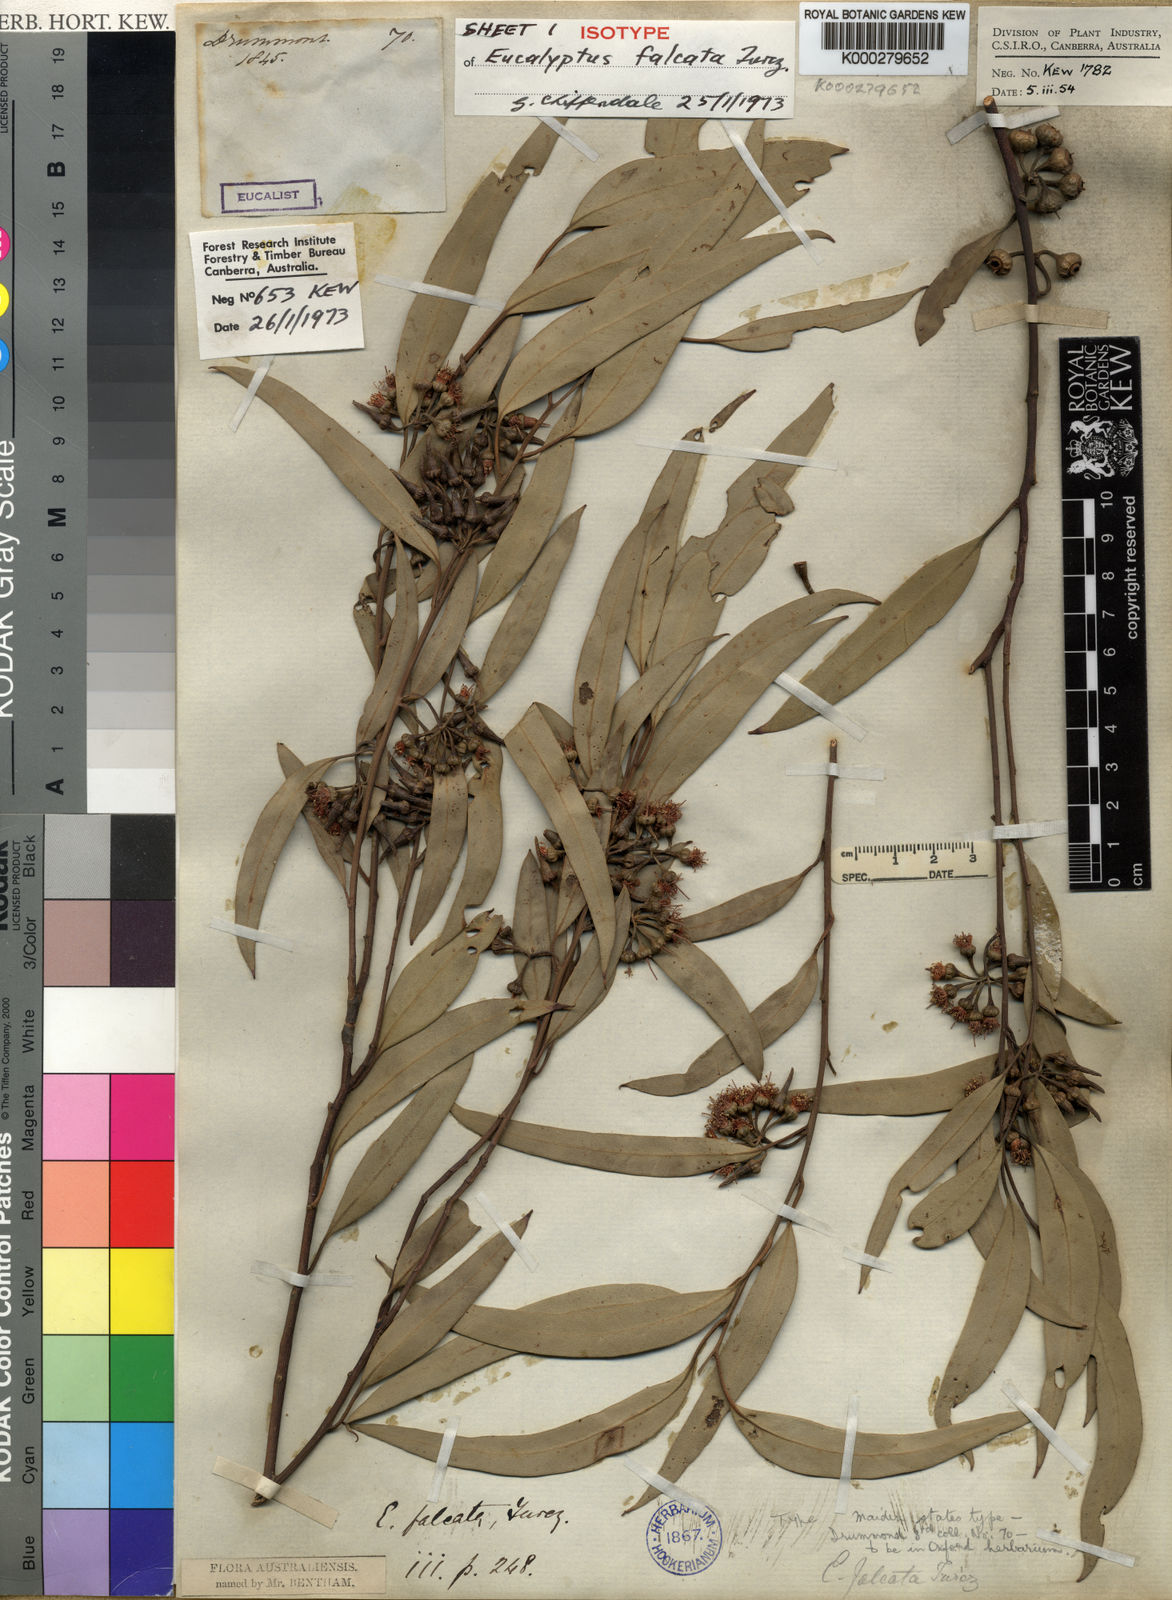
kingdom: Plantae
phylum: Tracheophyta
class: Magnoliopsida
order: Myrtales
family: Myrtaceae
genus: Eucalyptus
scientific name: Eucalyptus falcata
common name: Silver mallet
